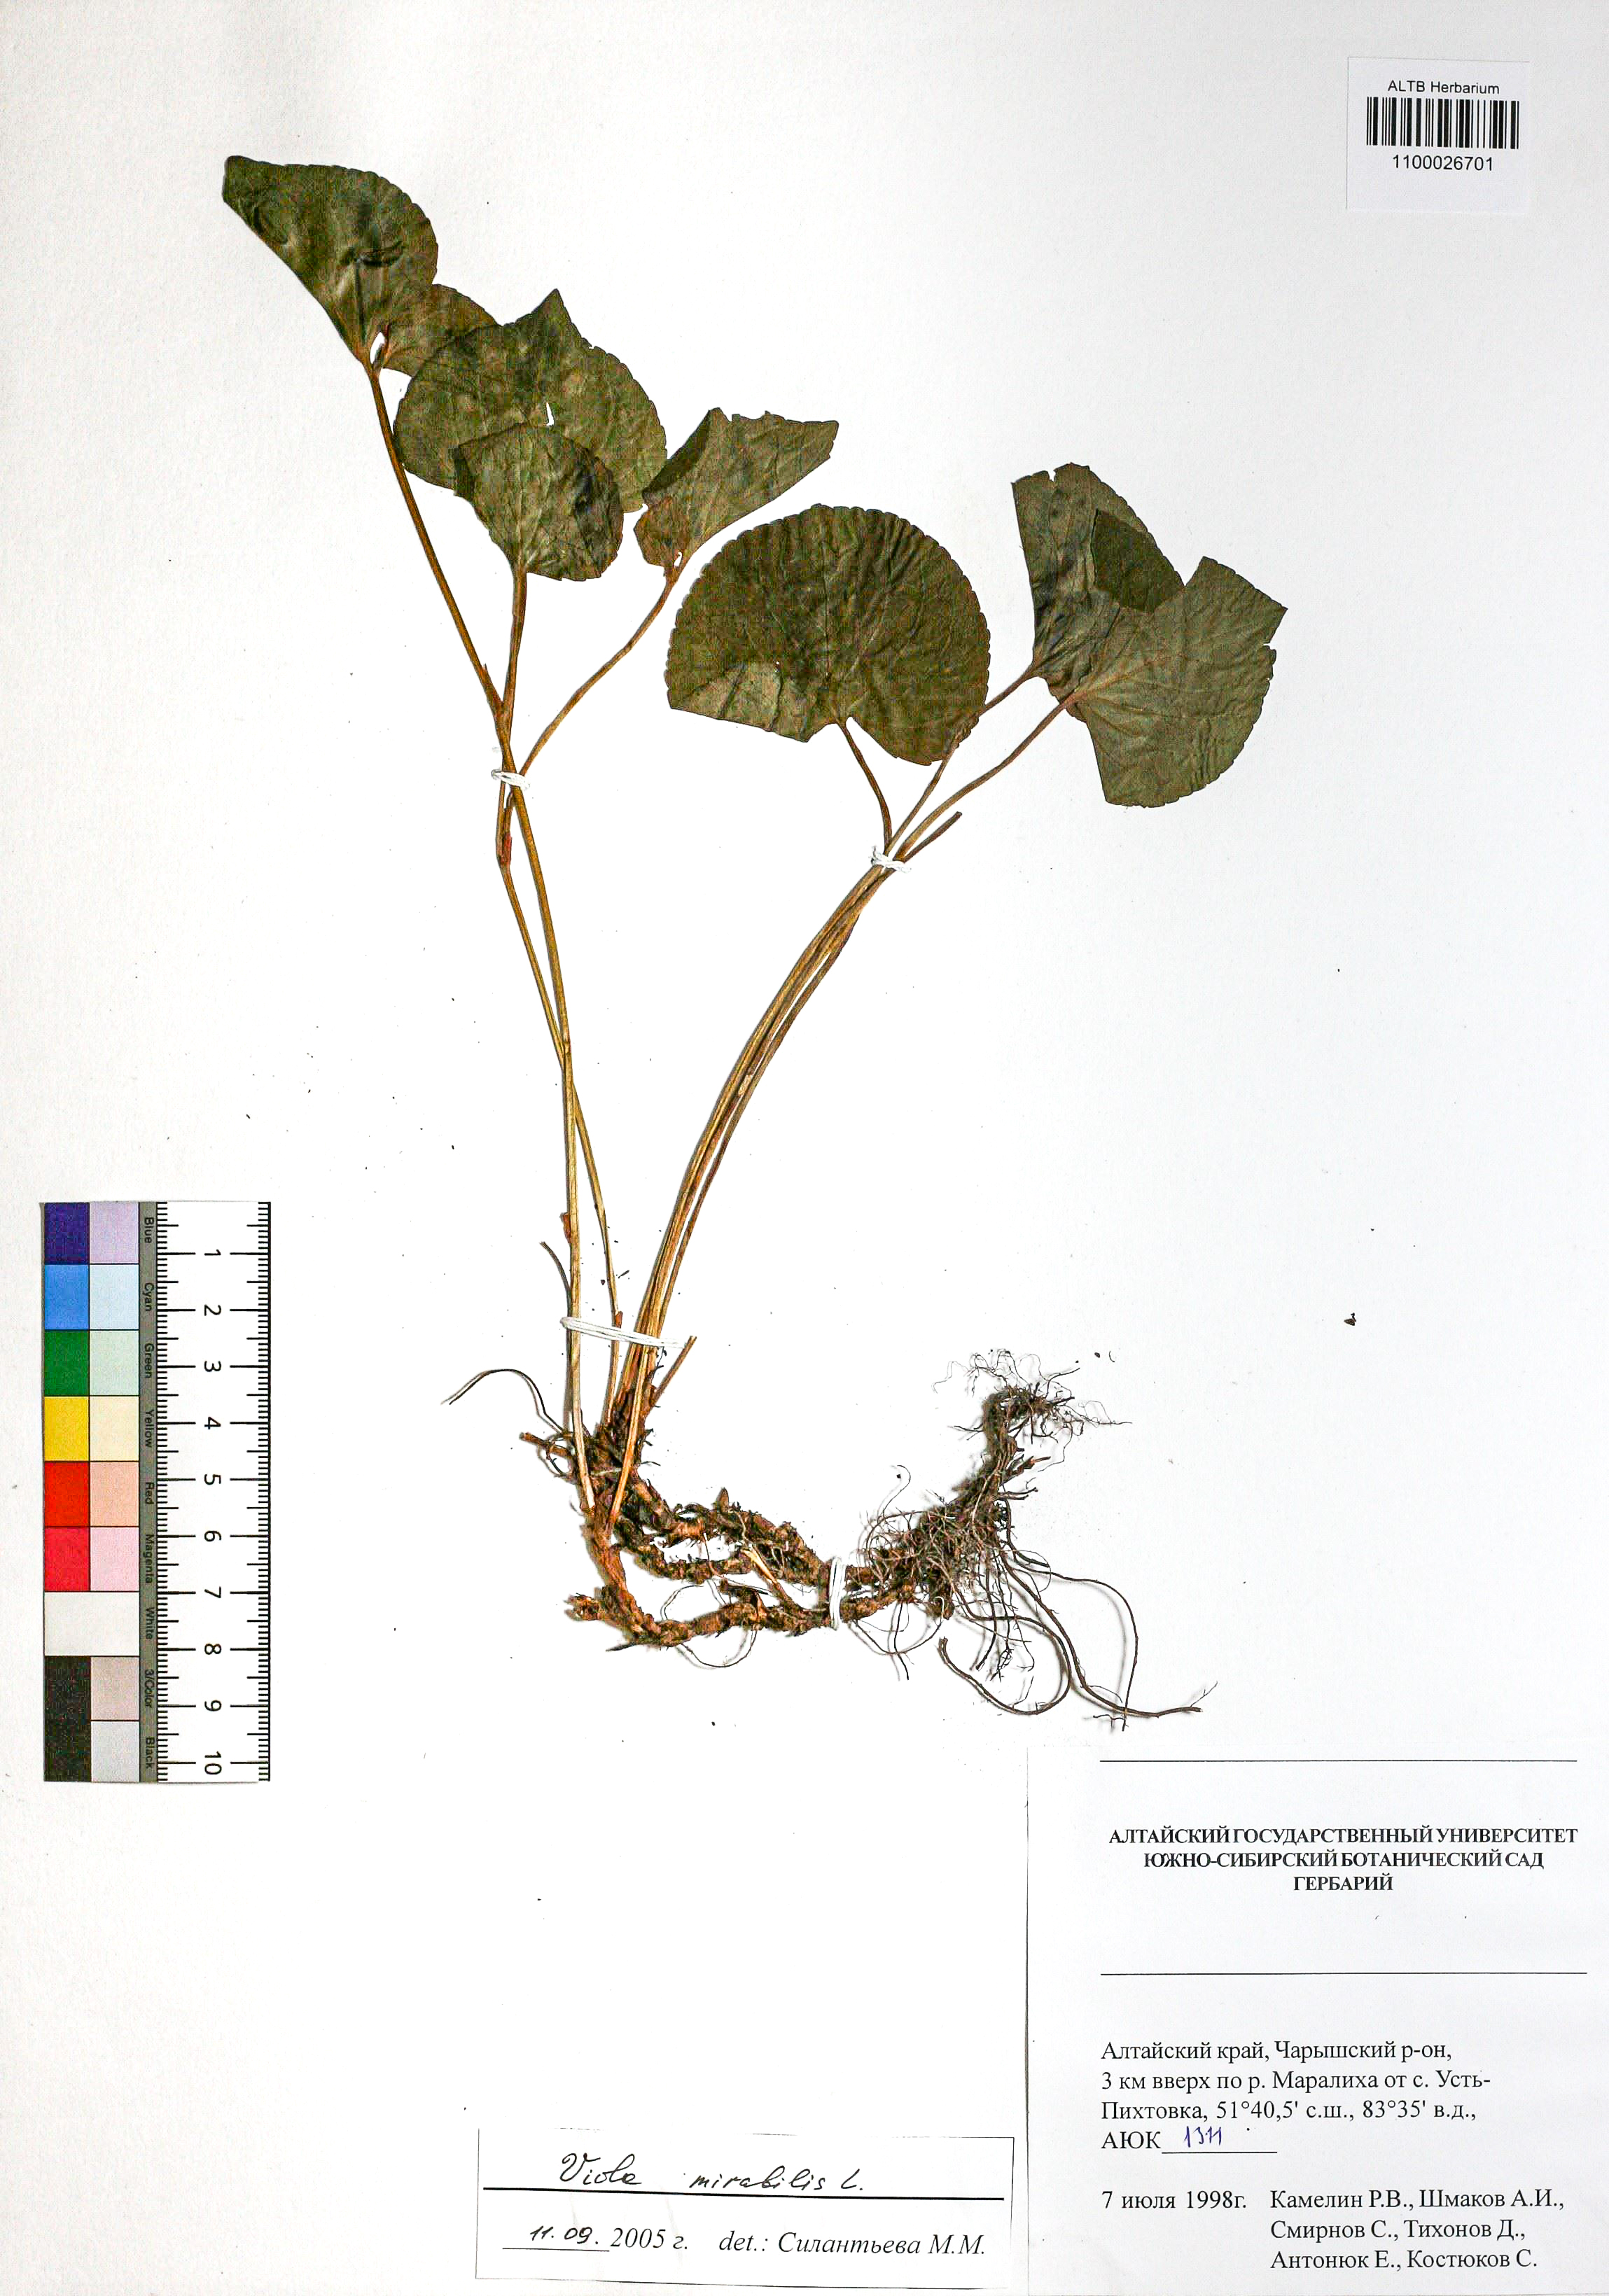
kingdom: Plantae
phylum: Tracheophyta
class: Magnoliopsida
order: Malpighiales
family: Violaceae
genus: Viola
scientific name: Viola mirabilis
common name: Wonder violet
